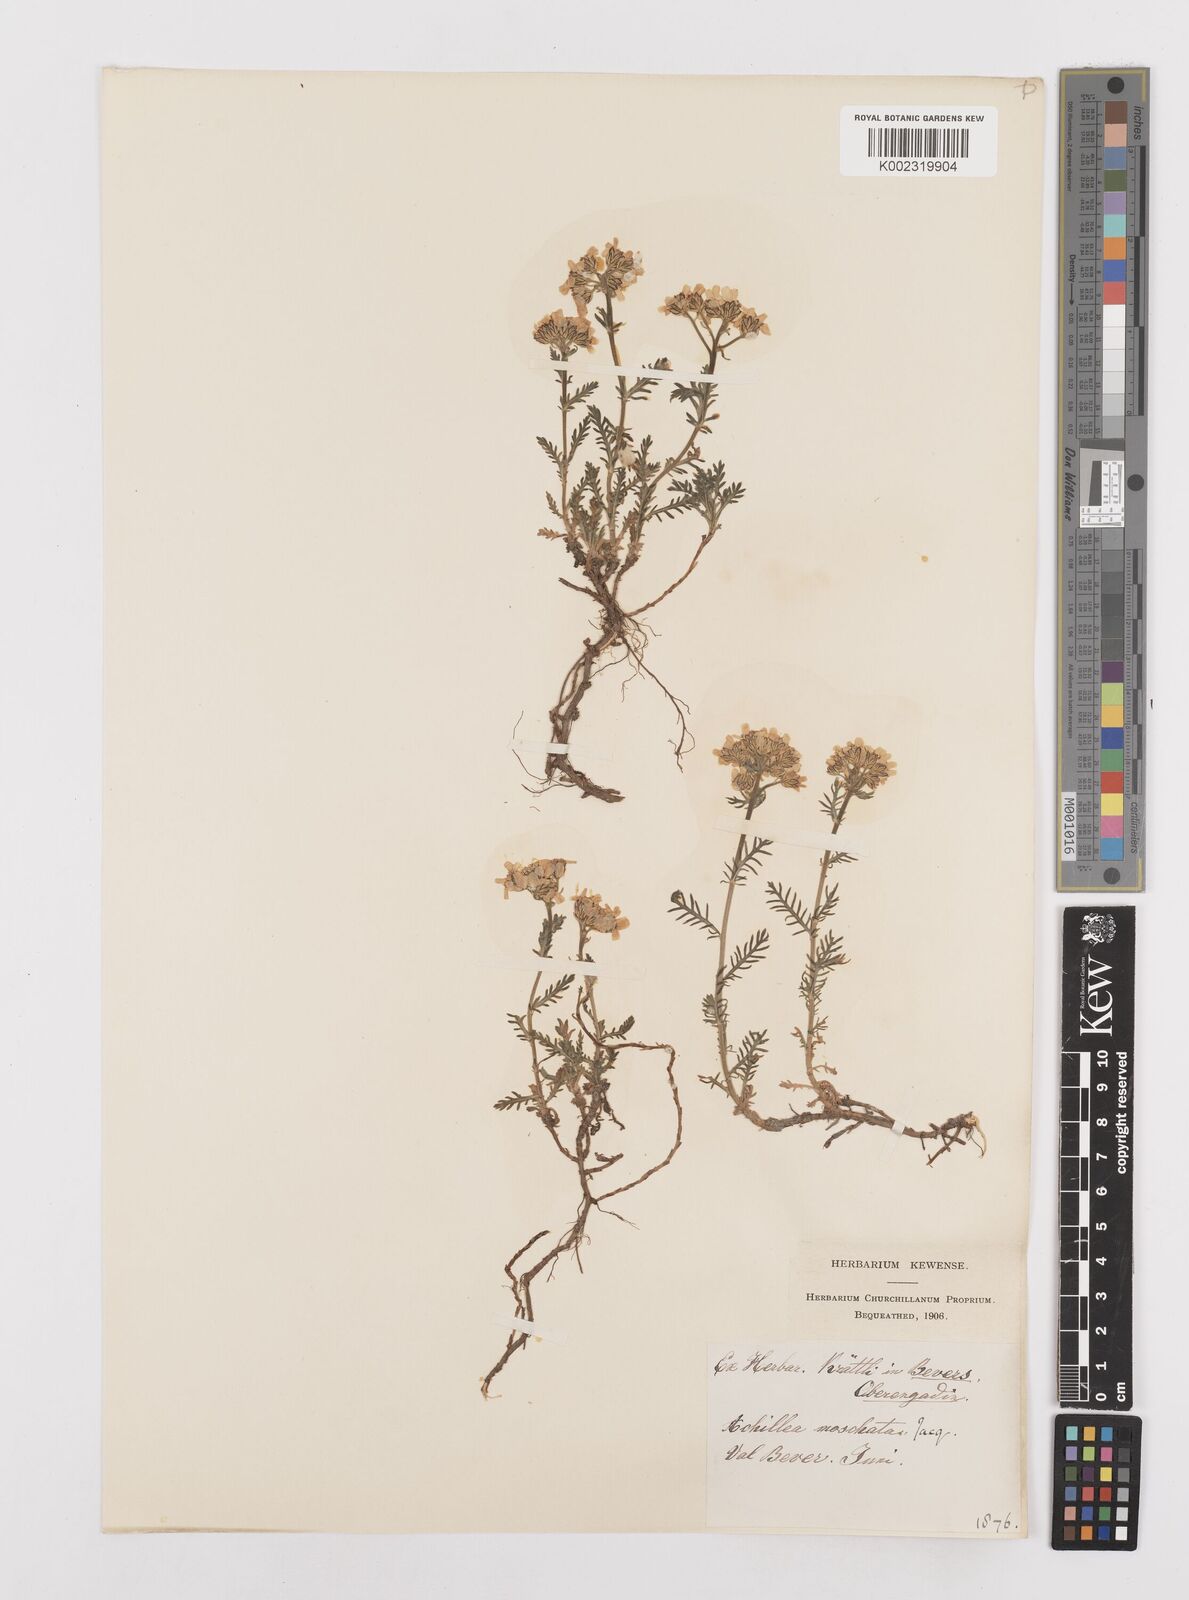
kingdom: Plantae
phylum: Tracheophyta
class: Magnoliopsida
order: Asterales
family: Asteraceae
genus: Achillea
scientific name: Achillea erba-rotta
